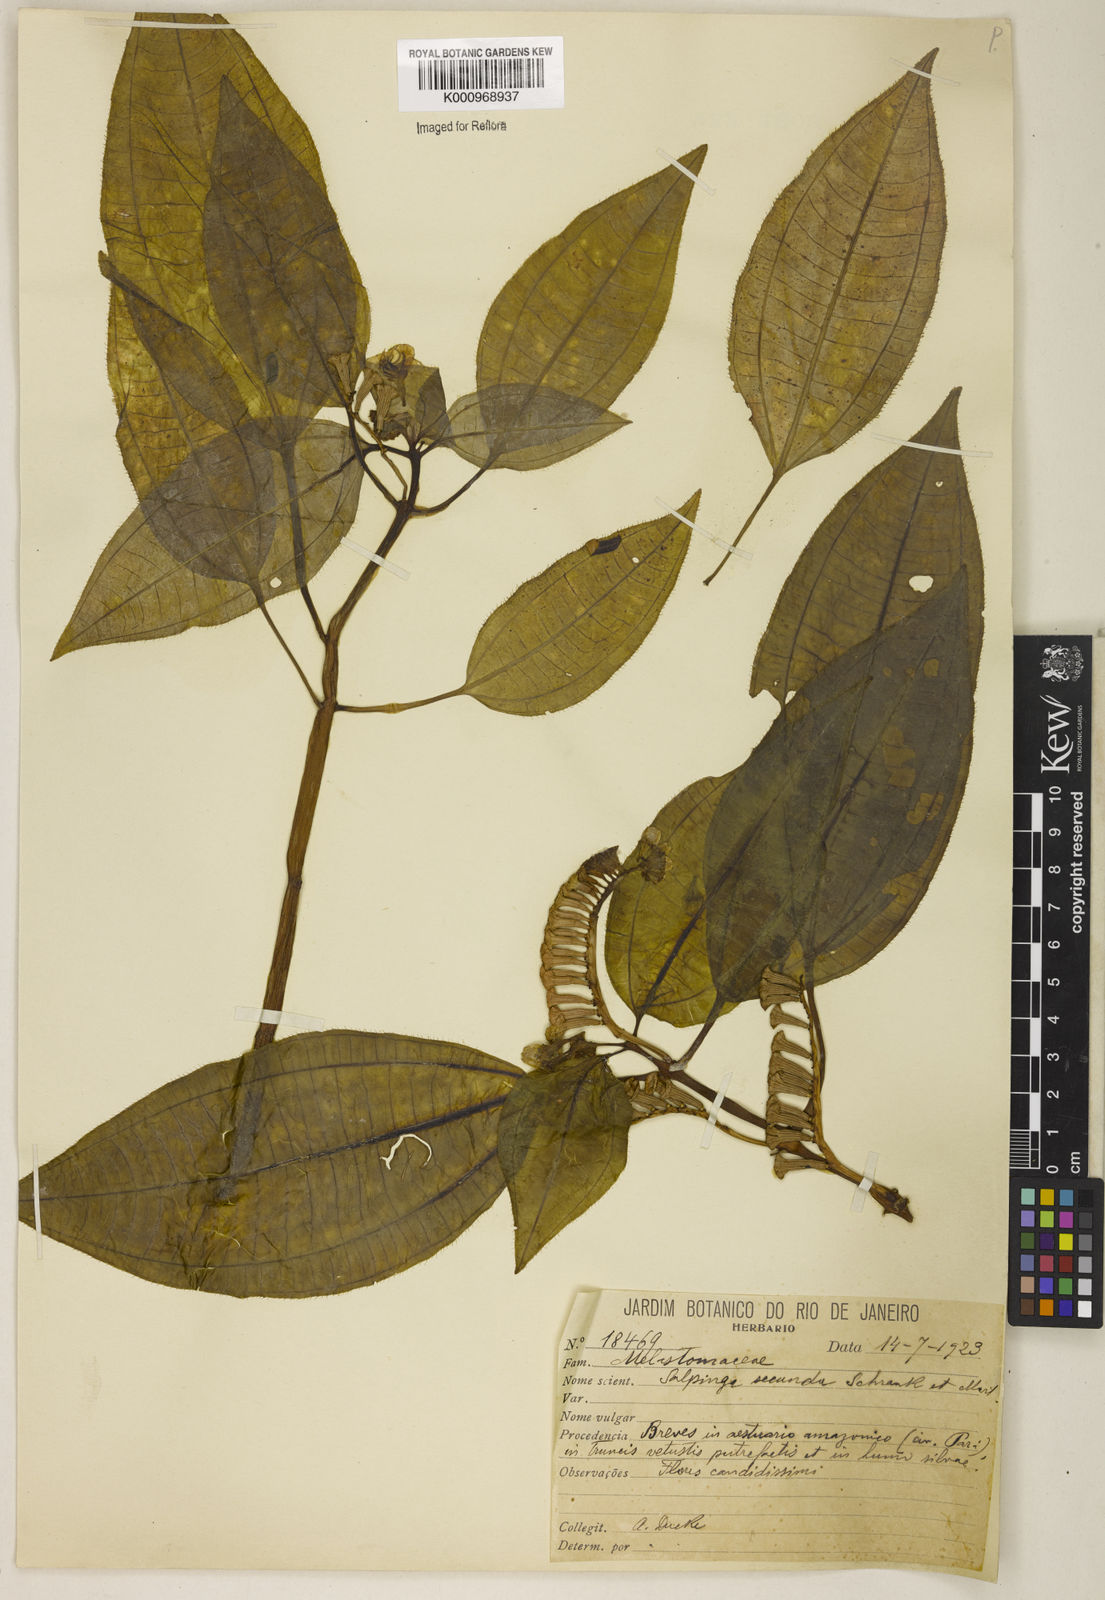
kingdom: Plantae
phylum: Tracheophyta
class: Magnoliopsida
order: Myrtales
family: Melastomataceae
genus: Salpinga
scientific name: Salpinga secunda
